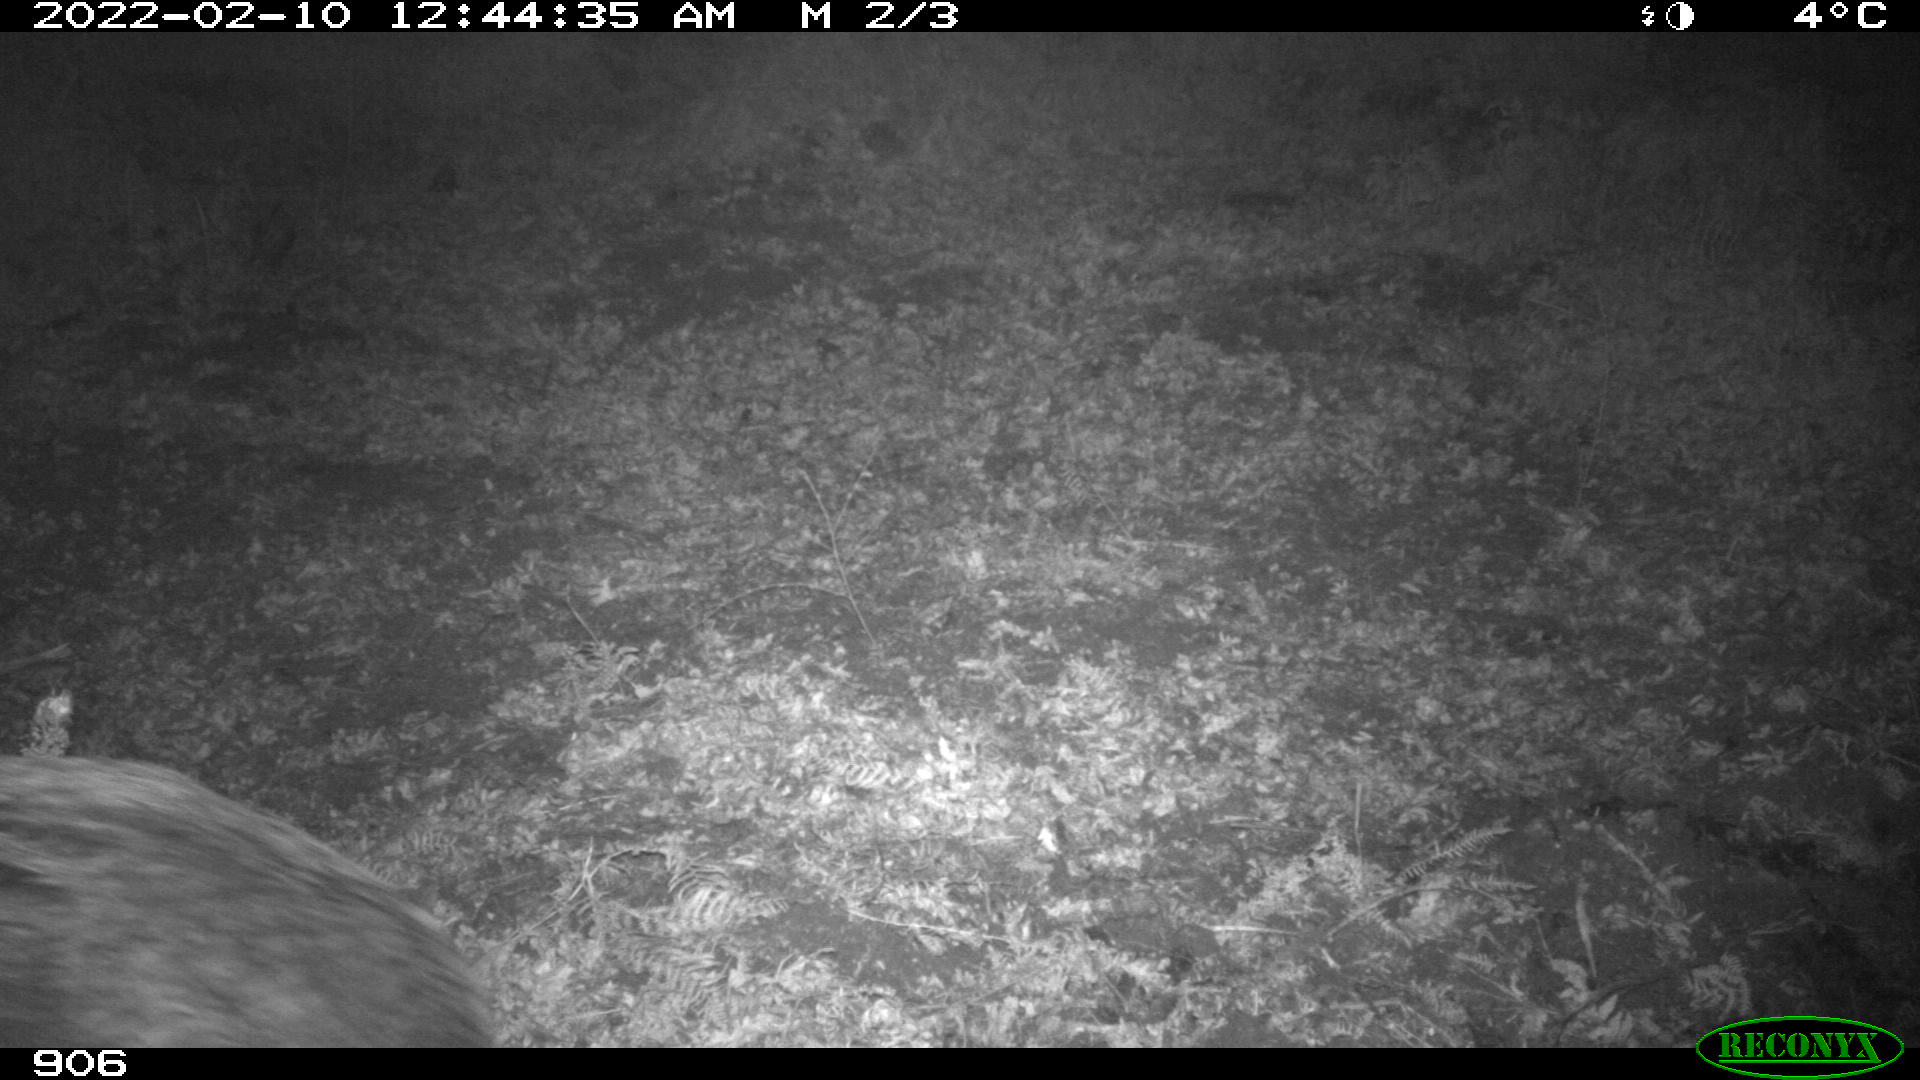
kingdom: Animalia
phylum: Chordata
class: Mammalia
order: Artiodactyla
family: Suidae
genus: Sus
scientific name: Sus scrofa
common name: Wild boar
